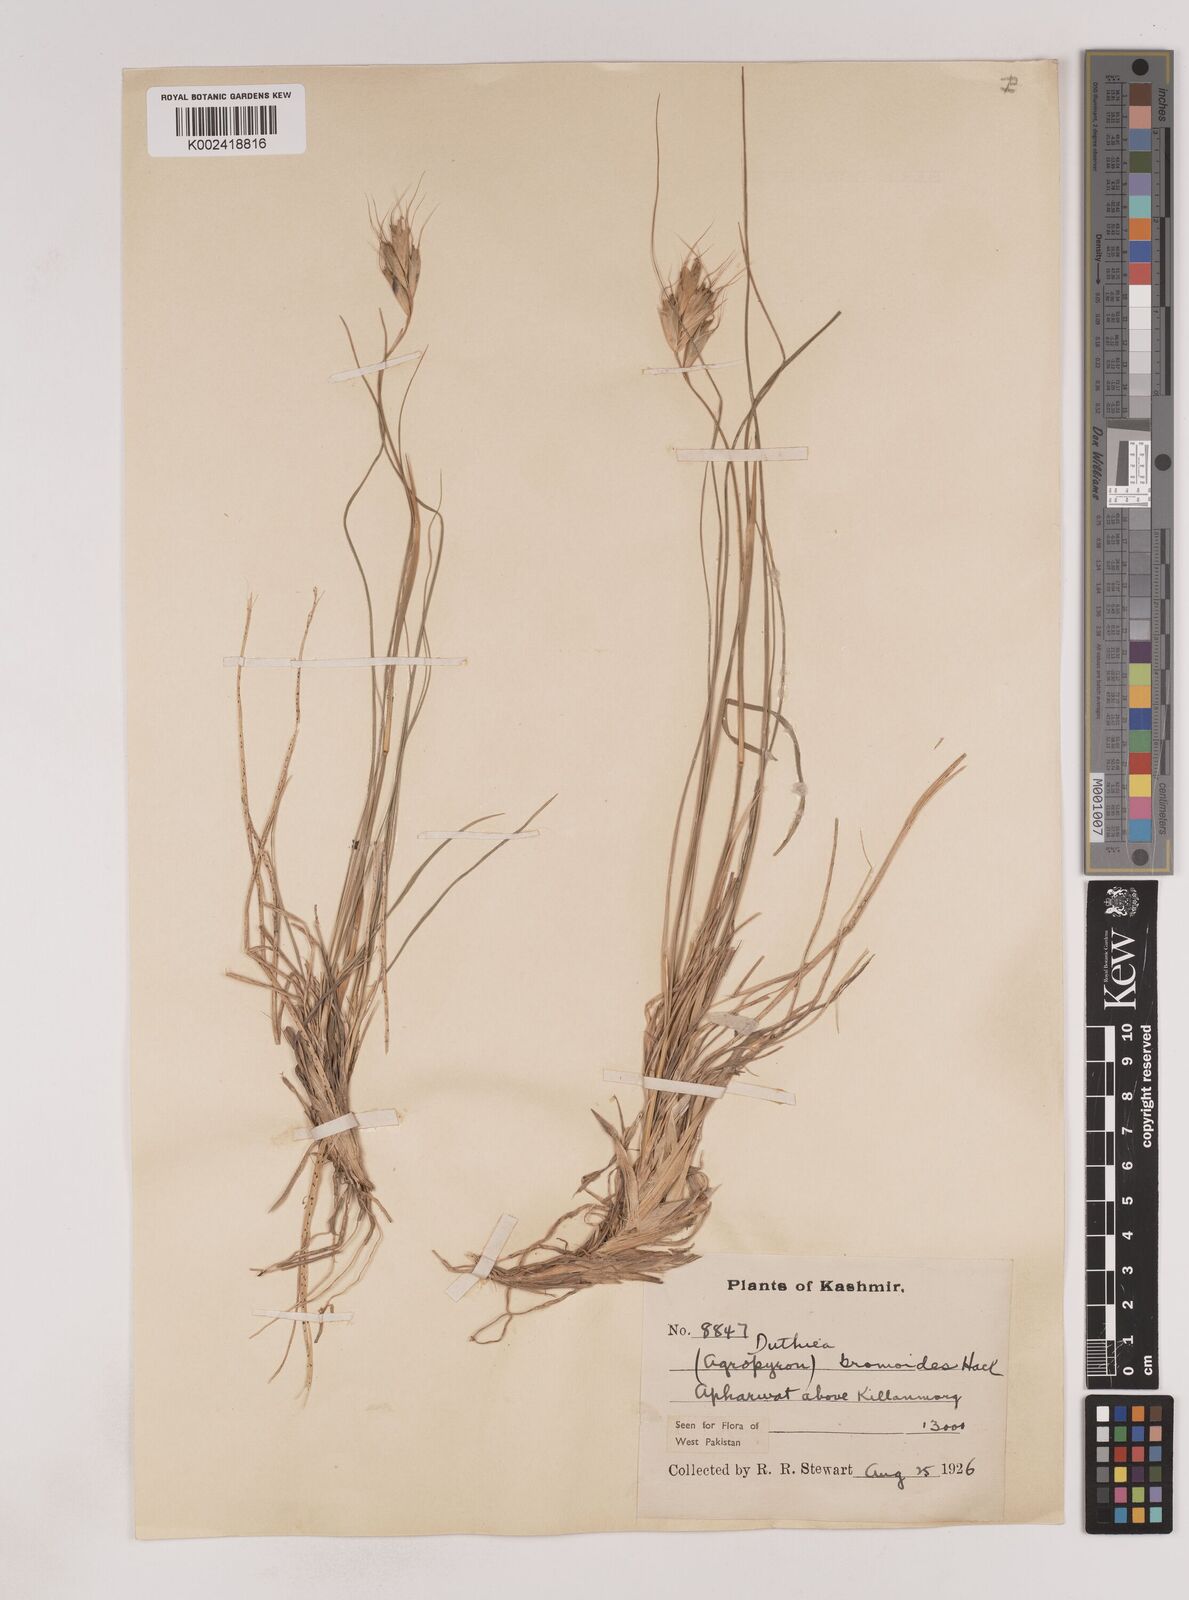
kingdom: Plantae
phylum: Tracheophyta
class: Liliopsida
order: Poales
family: Poaceae
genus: Duthiea
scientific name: Duthiea bromoides
